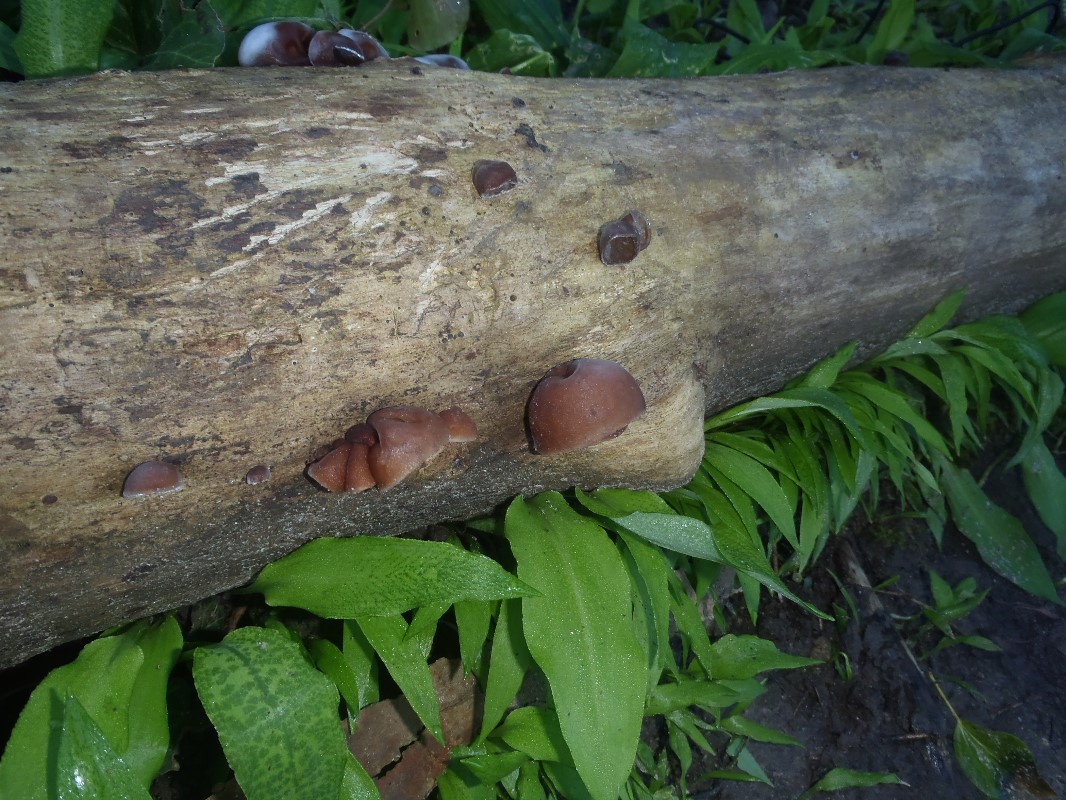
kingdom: Fungi
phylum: Basidiomycota
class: Agaricomycetes
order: Auriculariales
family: Auriculariaceae
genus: Auricularia
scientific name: Auricularia auricula-judae
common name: almindelig judasøre
